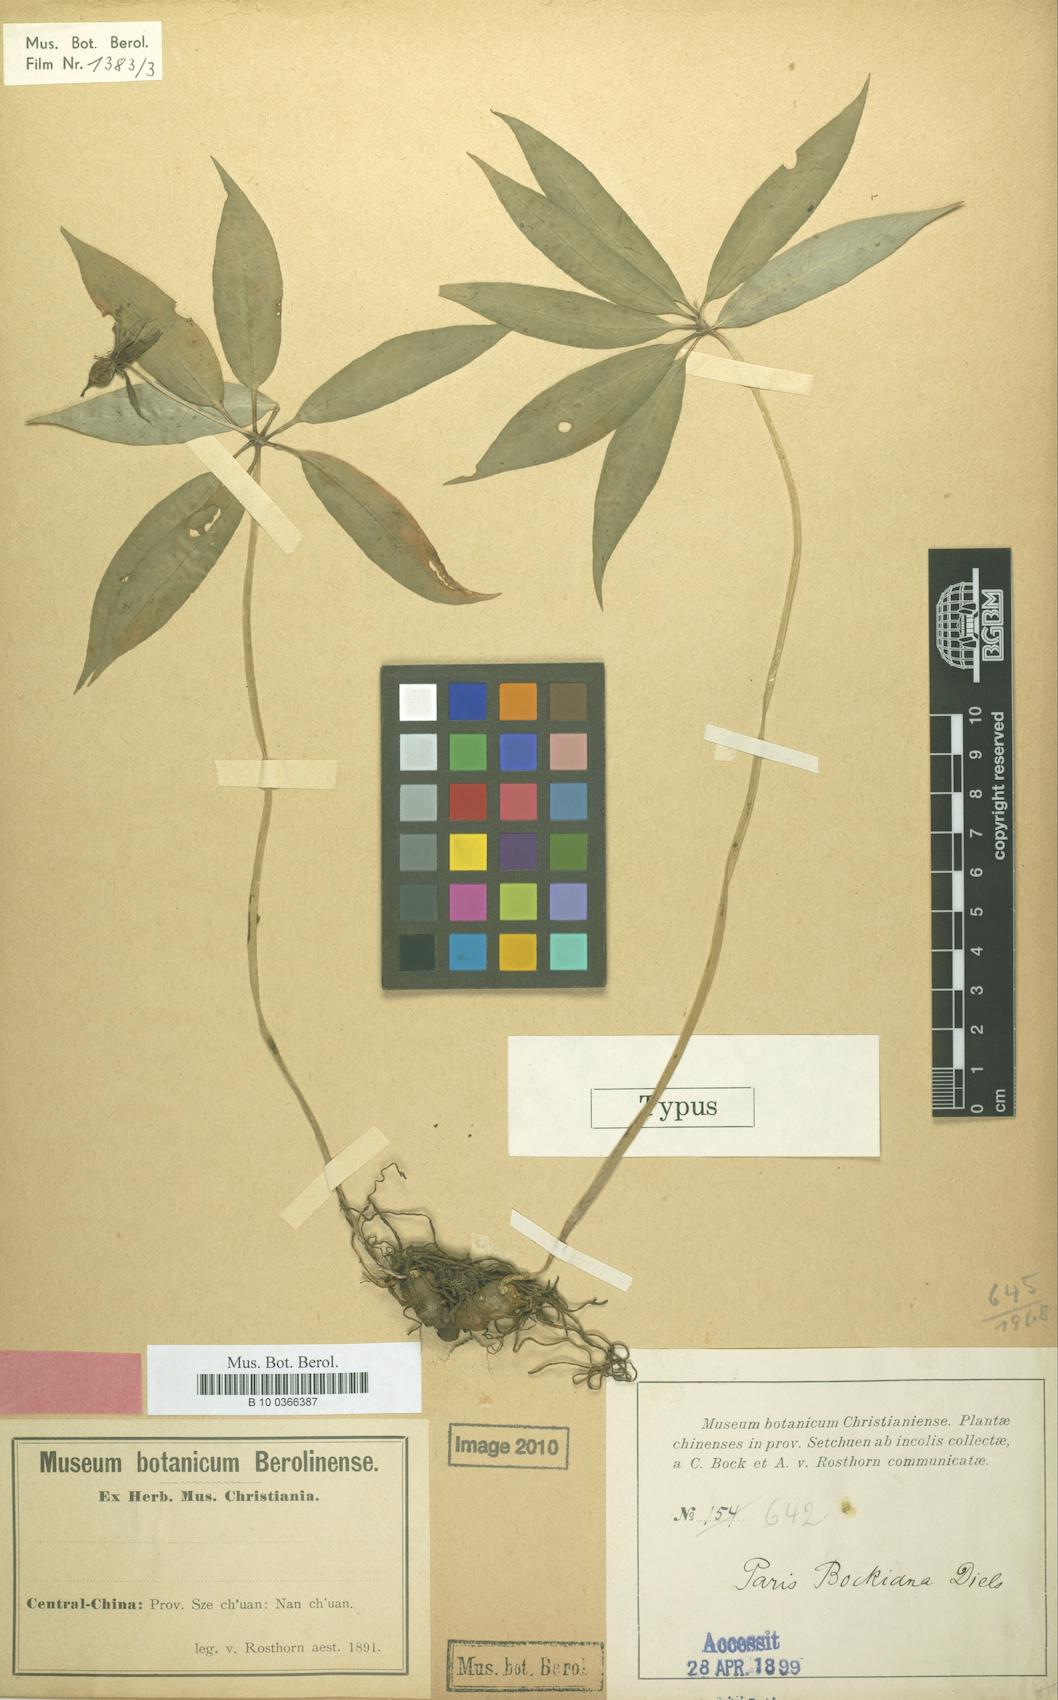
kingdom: Plantae
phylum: Tracheophyta
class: Liliopsida
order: Liliales
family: Melanthiaceae
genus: Paris
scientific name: Paris delavayi
